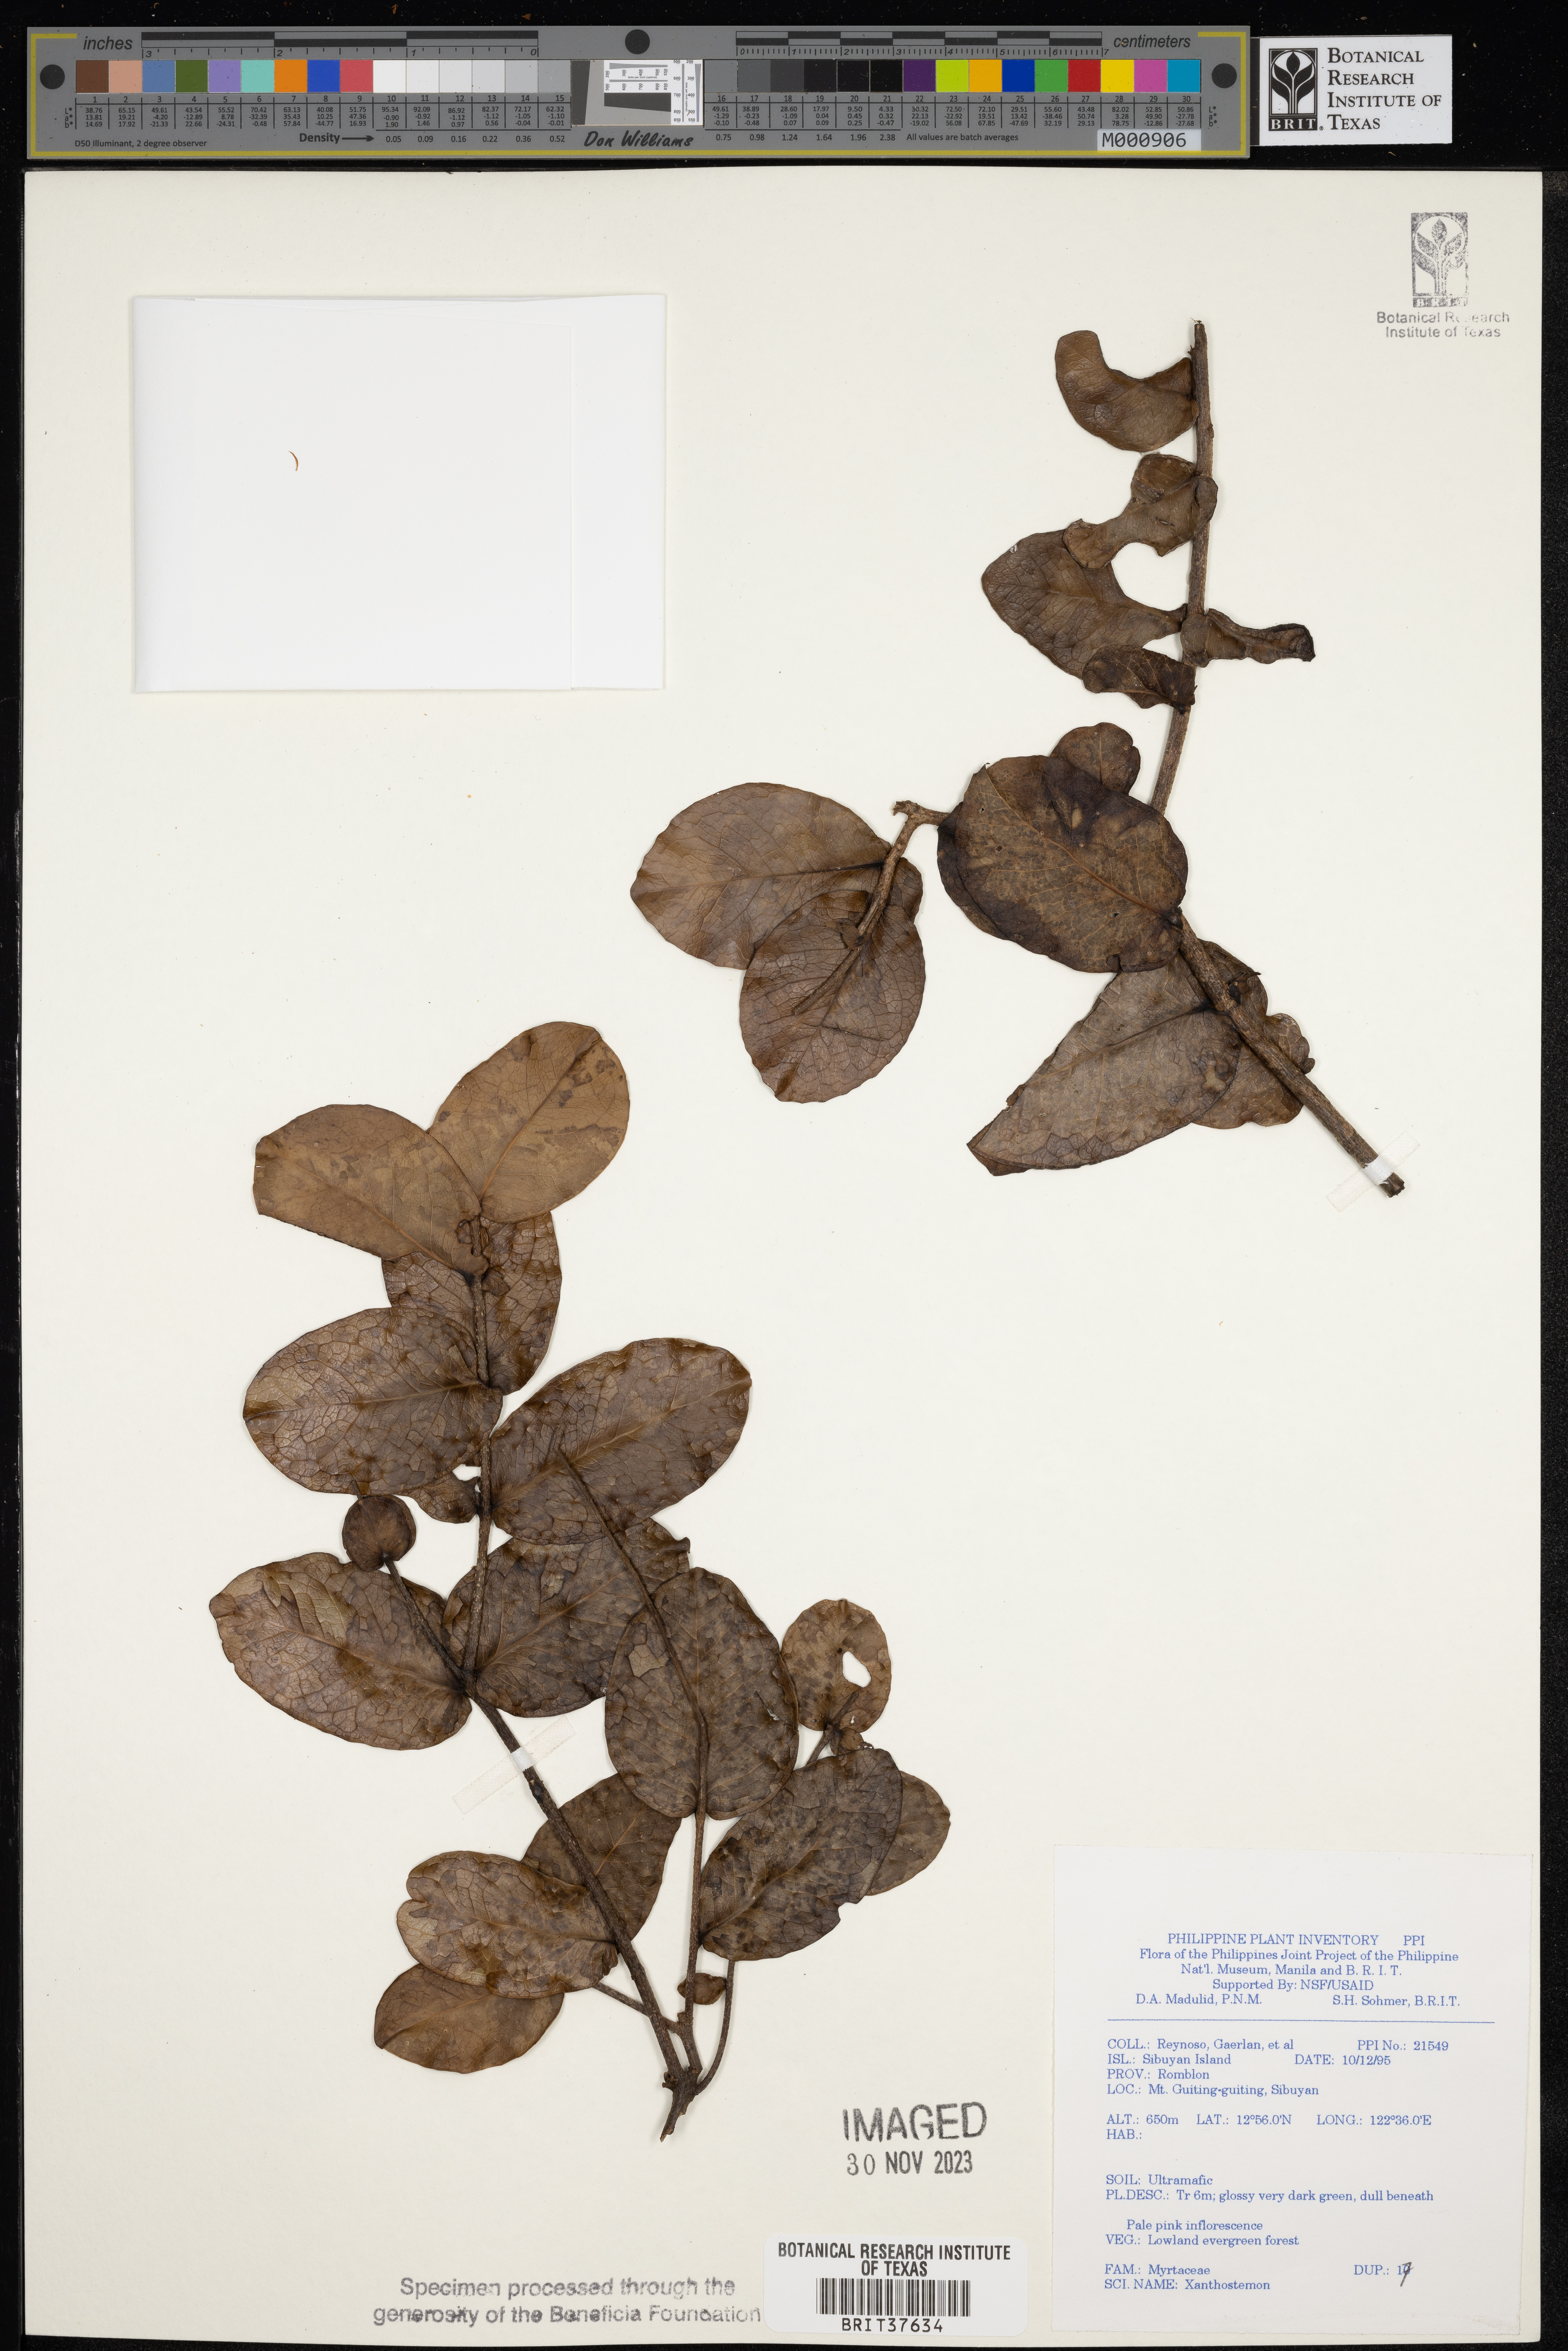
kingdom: Plantae
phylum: Tracheophyta
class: Magnoliopsida
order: Myrtales
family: Myrtaceae
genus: Xanthostemon
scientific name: Xanthostemon
